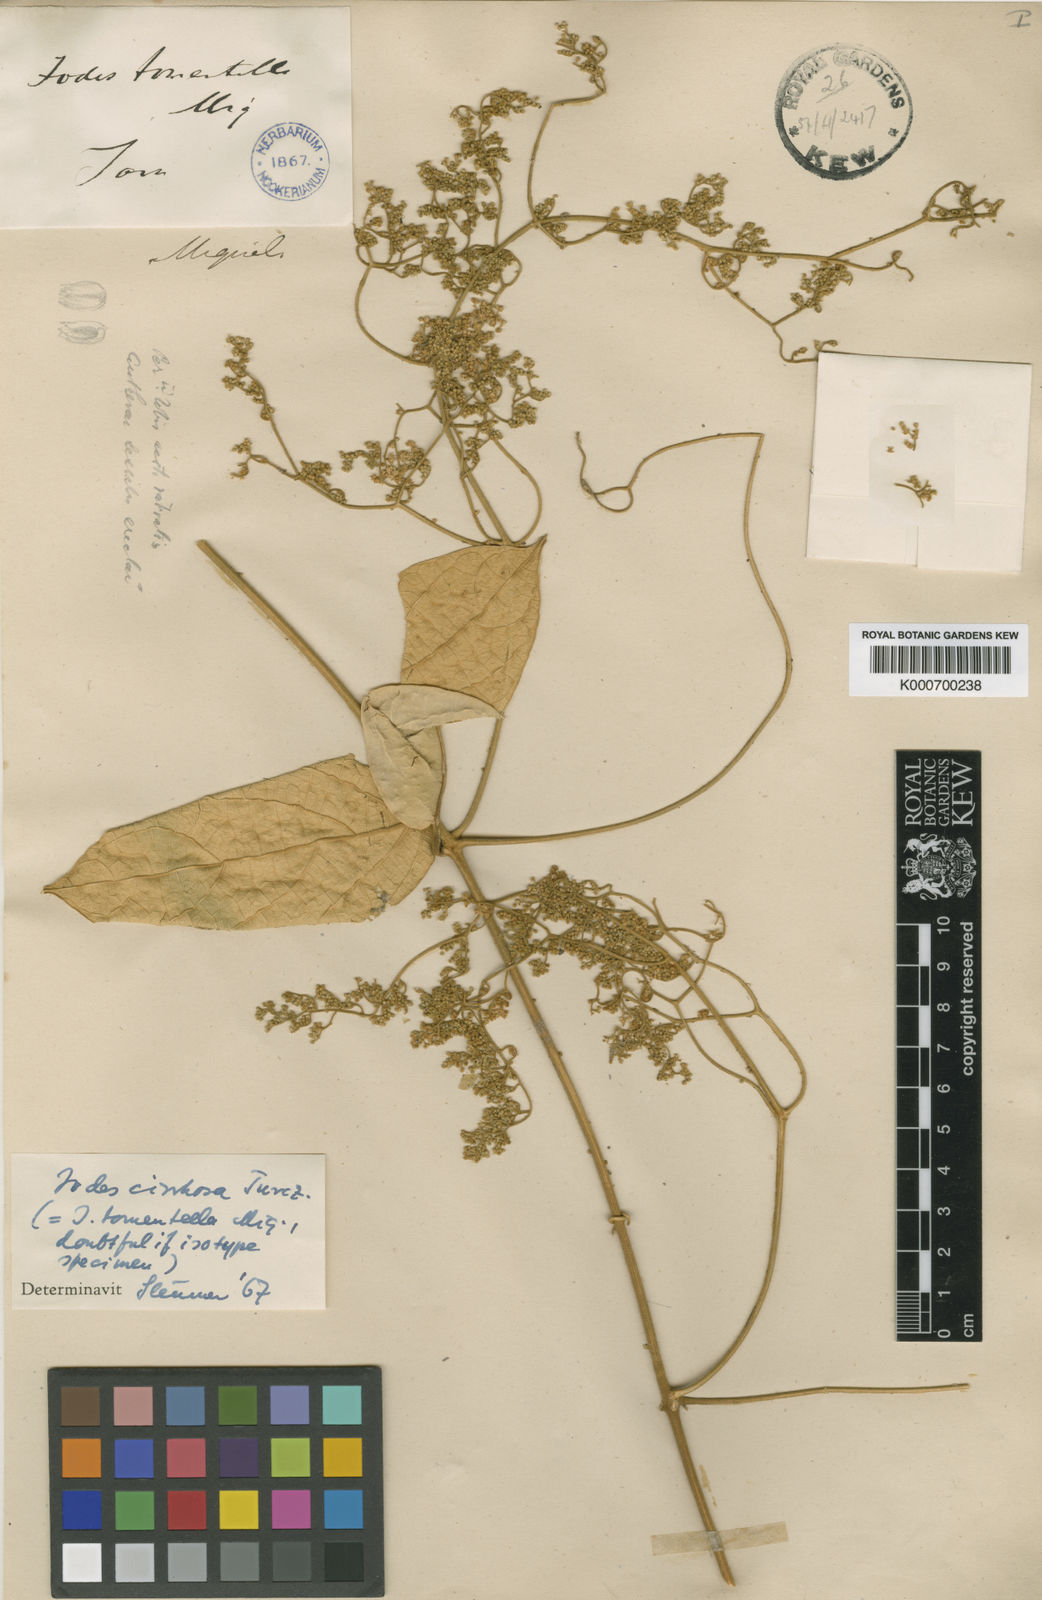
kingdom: Plantae
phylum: Tracheophyta
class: Magnoliopsida
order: Icacinales
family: Icacinaceae
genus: Iodes
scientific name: Iodes cirrhosa
